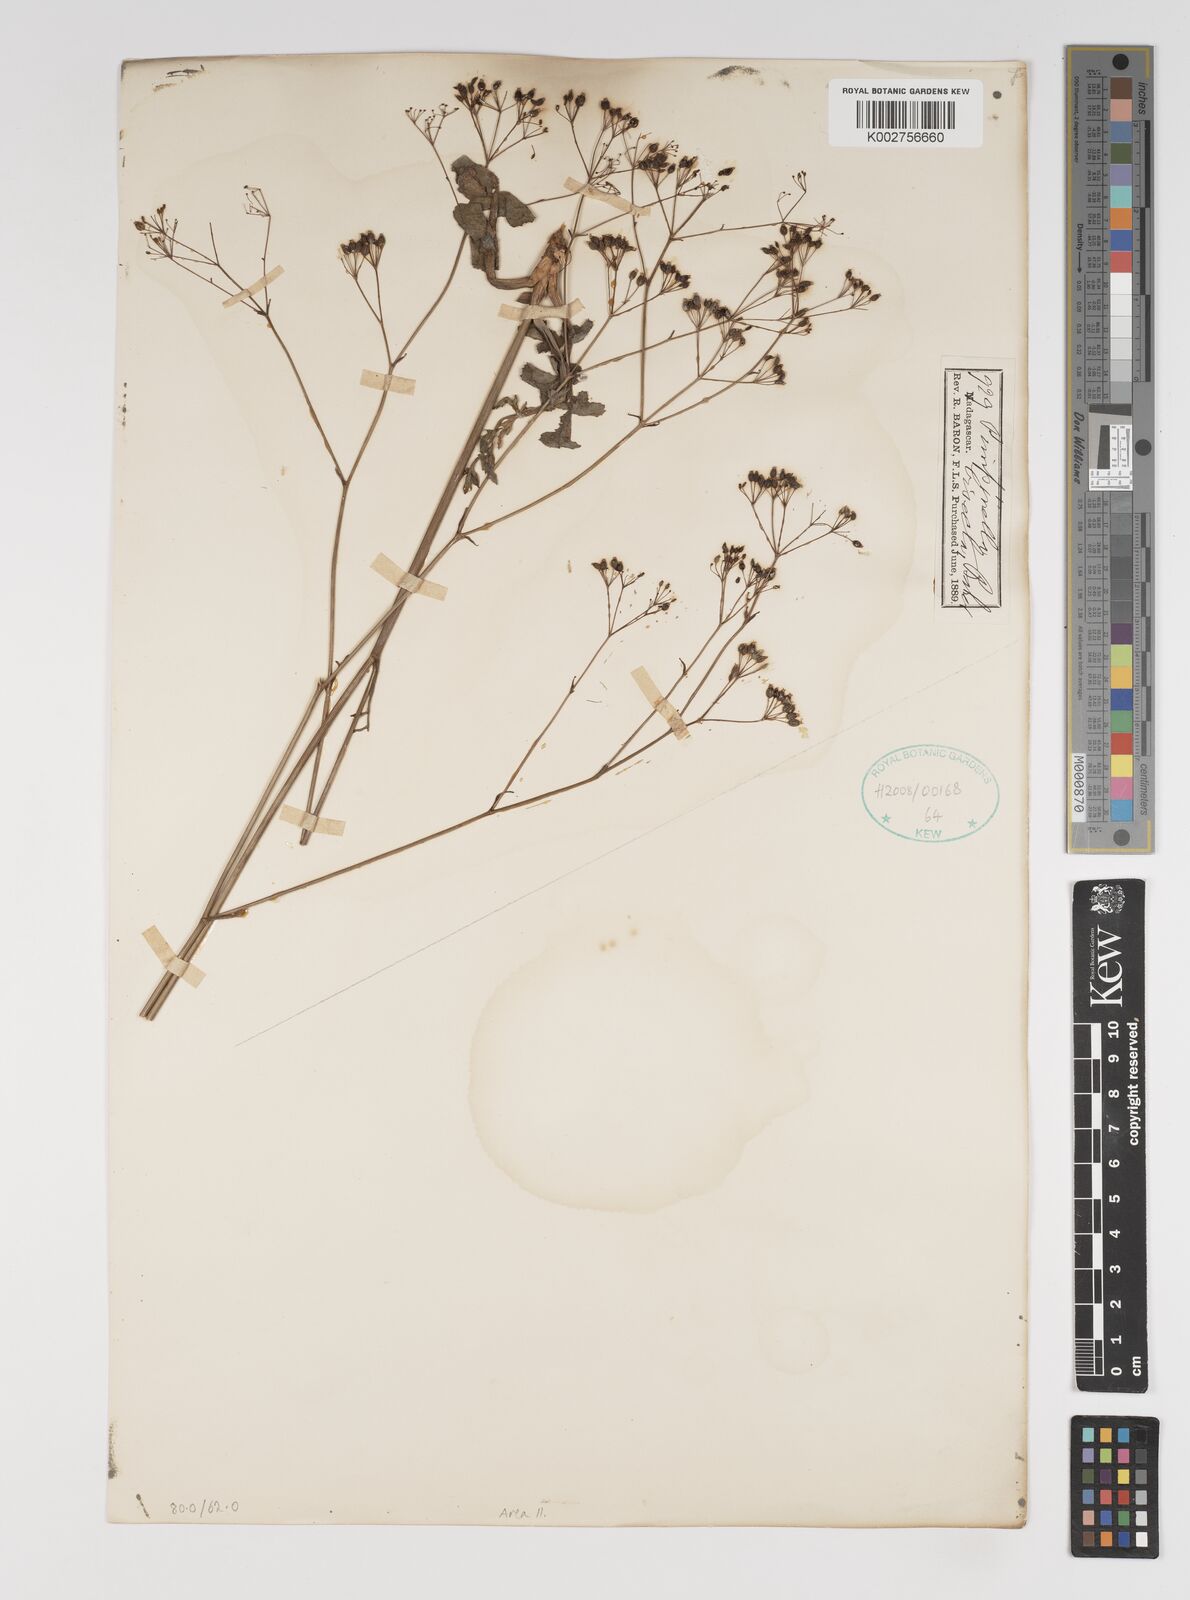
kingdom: Plantae
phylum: Tracheophyta
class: Magnoliopsida
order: Apiales
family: Apiaceae
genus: Pimpinella
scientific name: Pimpinella ebracteata
